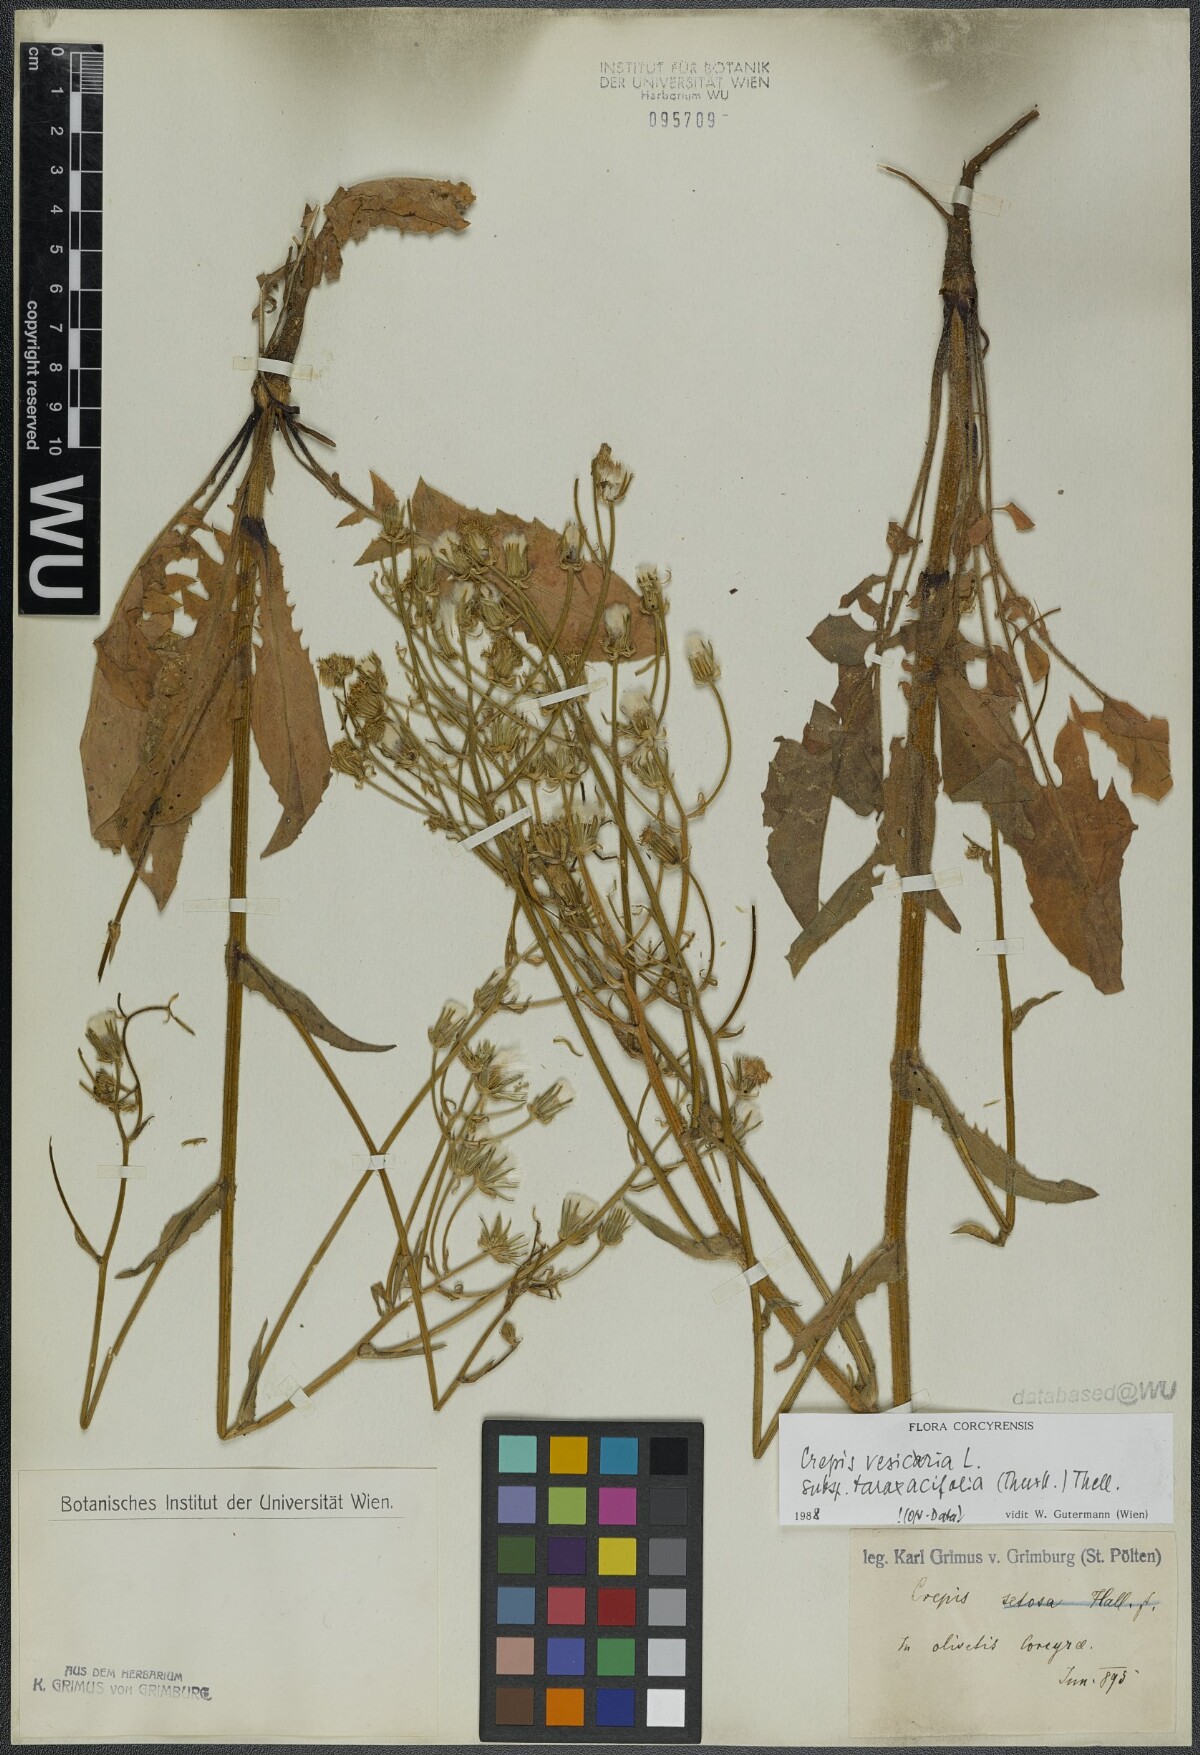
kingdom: Plantae
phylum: Tracheophyta
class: Magnoliopsida
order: Asterales
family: Asteraceae
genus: Crepis
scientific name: Crepis vesicaria
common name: Beaked hawksbeard
